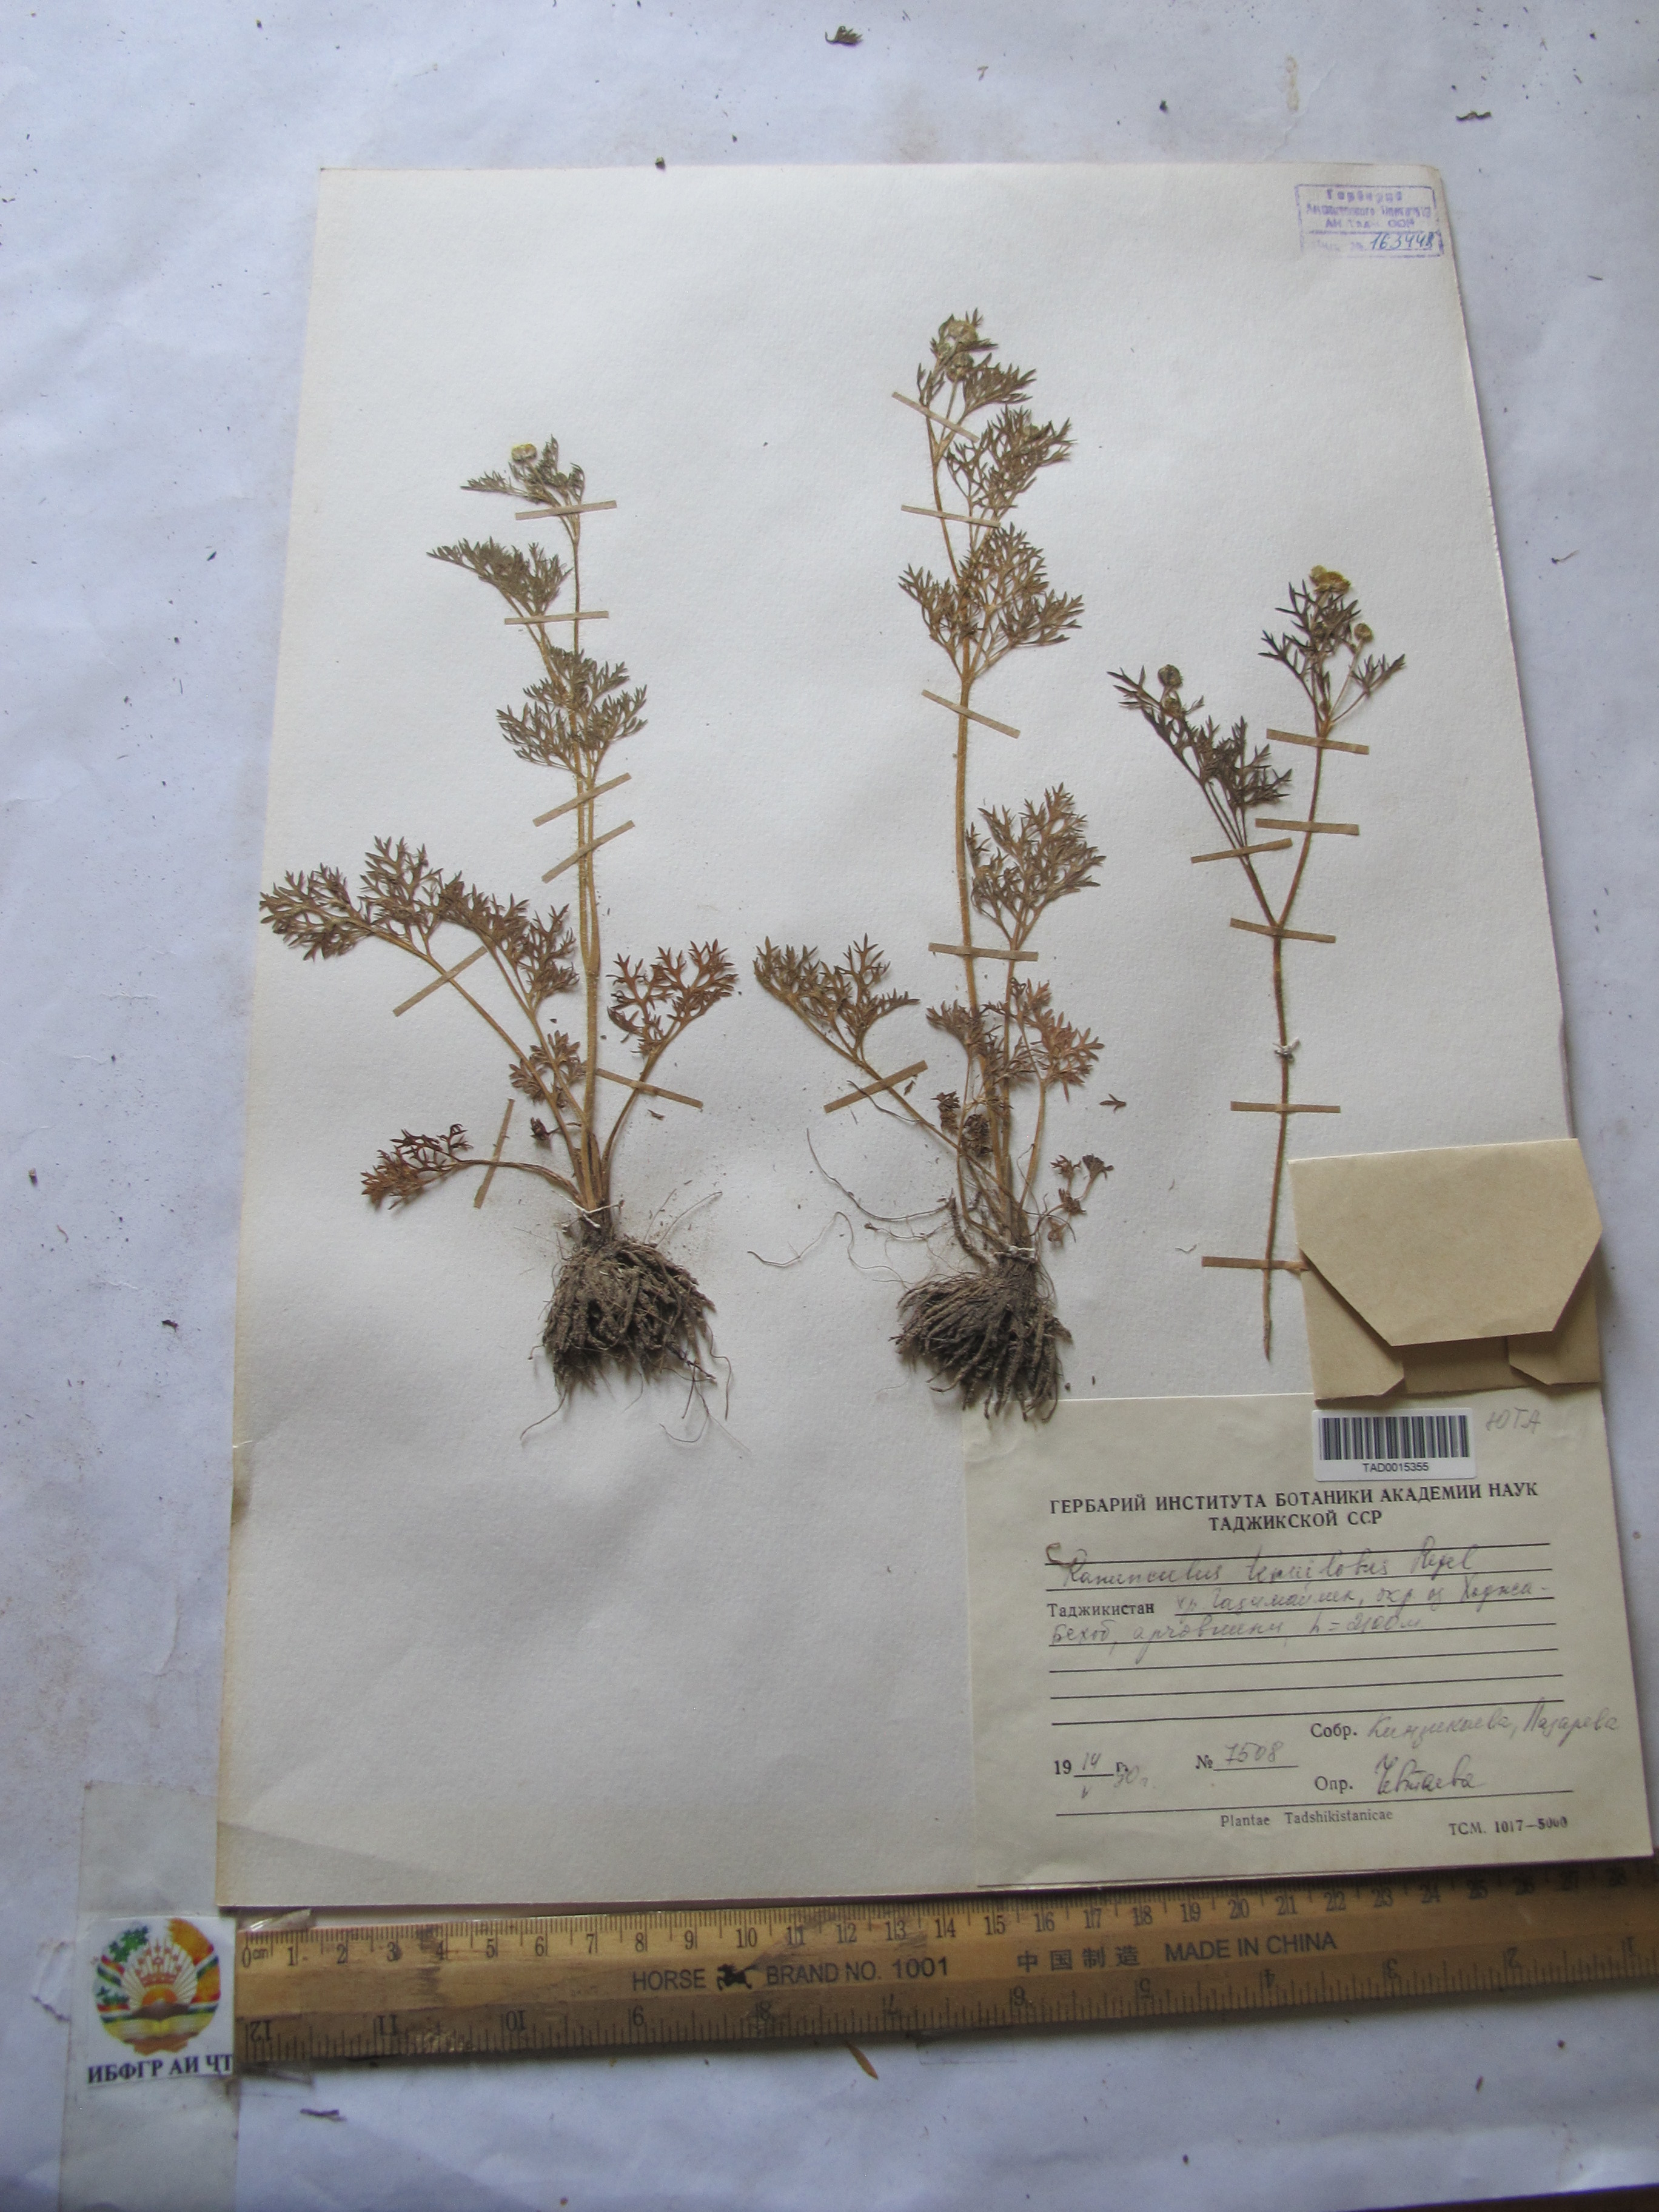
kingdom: Plantae
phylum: Tracheophyta
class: Magnoliopsida
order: Ranunculales
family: Ranunculaceae
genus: Ranunculus
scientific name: Ranunculus tenuilobus
